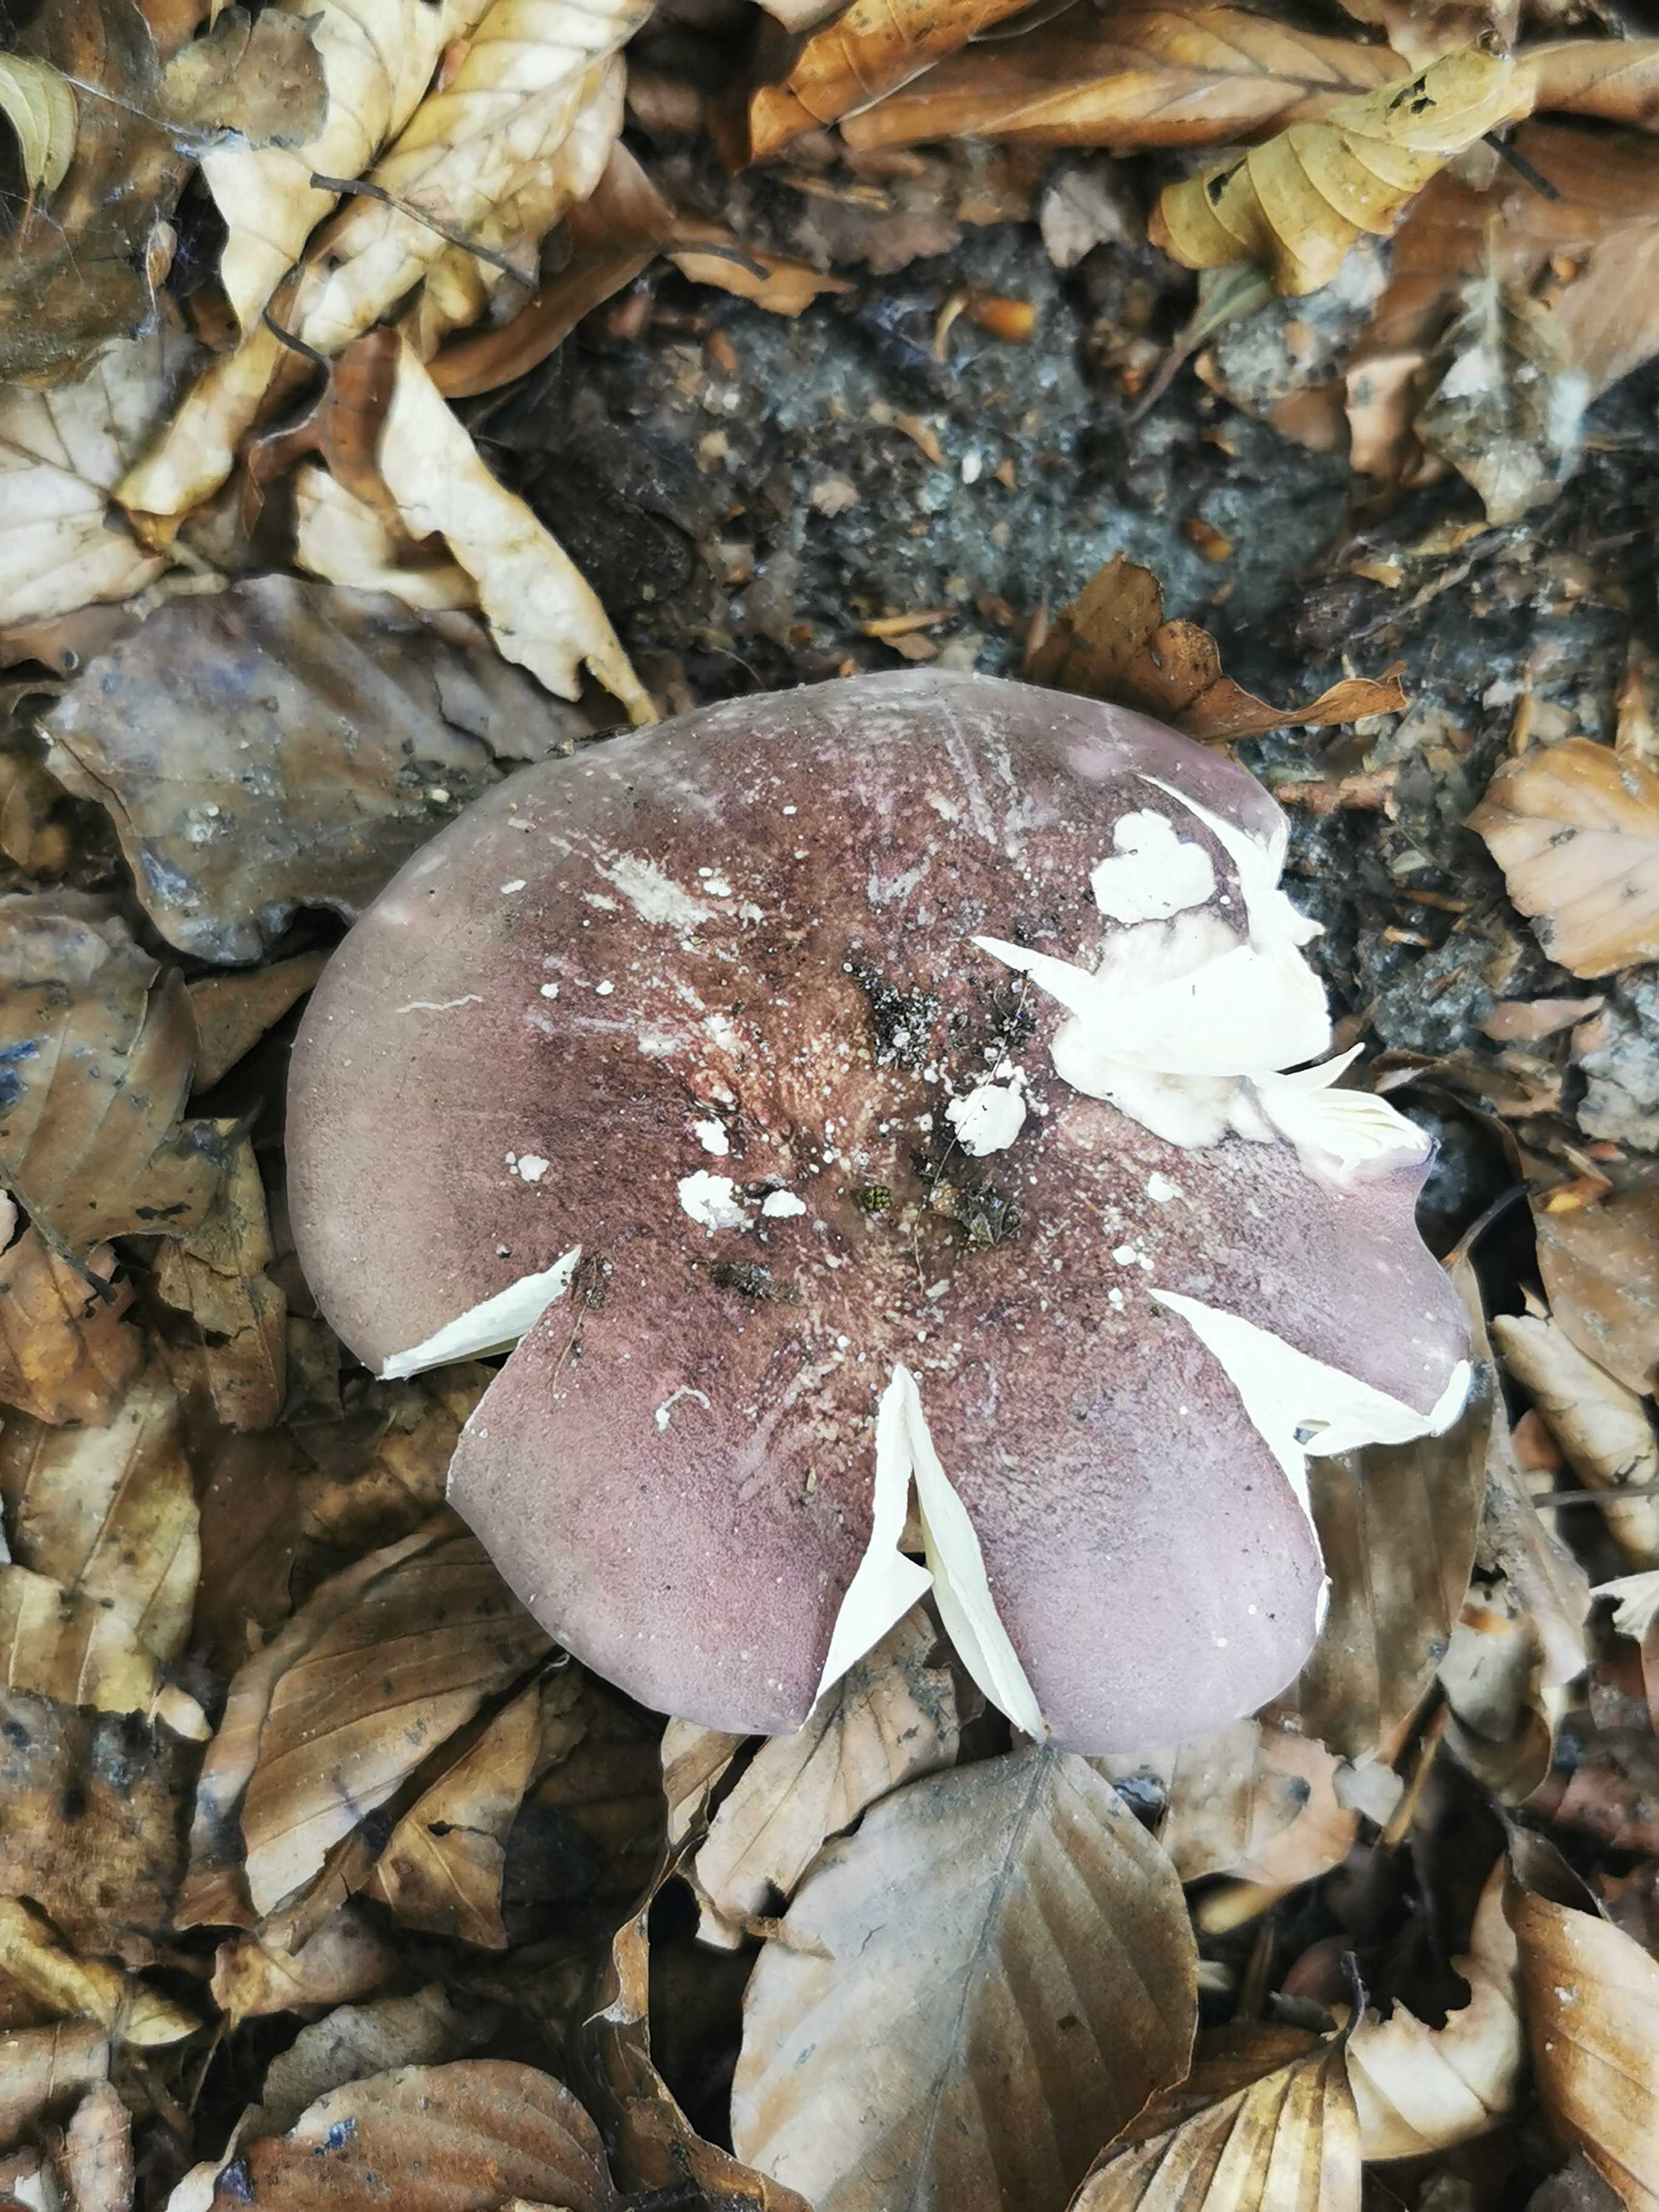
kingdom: Fungi
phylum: Basidiomycota
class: Agaricomycetes
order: Russulales
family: Russulaceae
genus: Russula
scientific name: Russula olivacea
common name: stor skørhat
